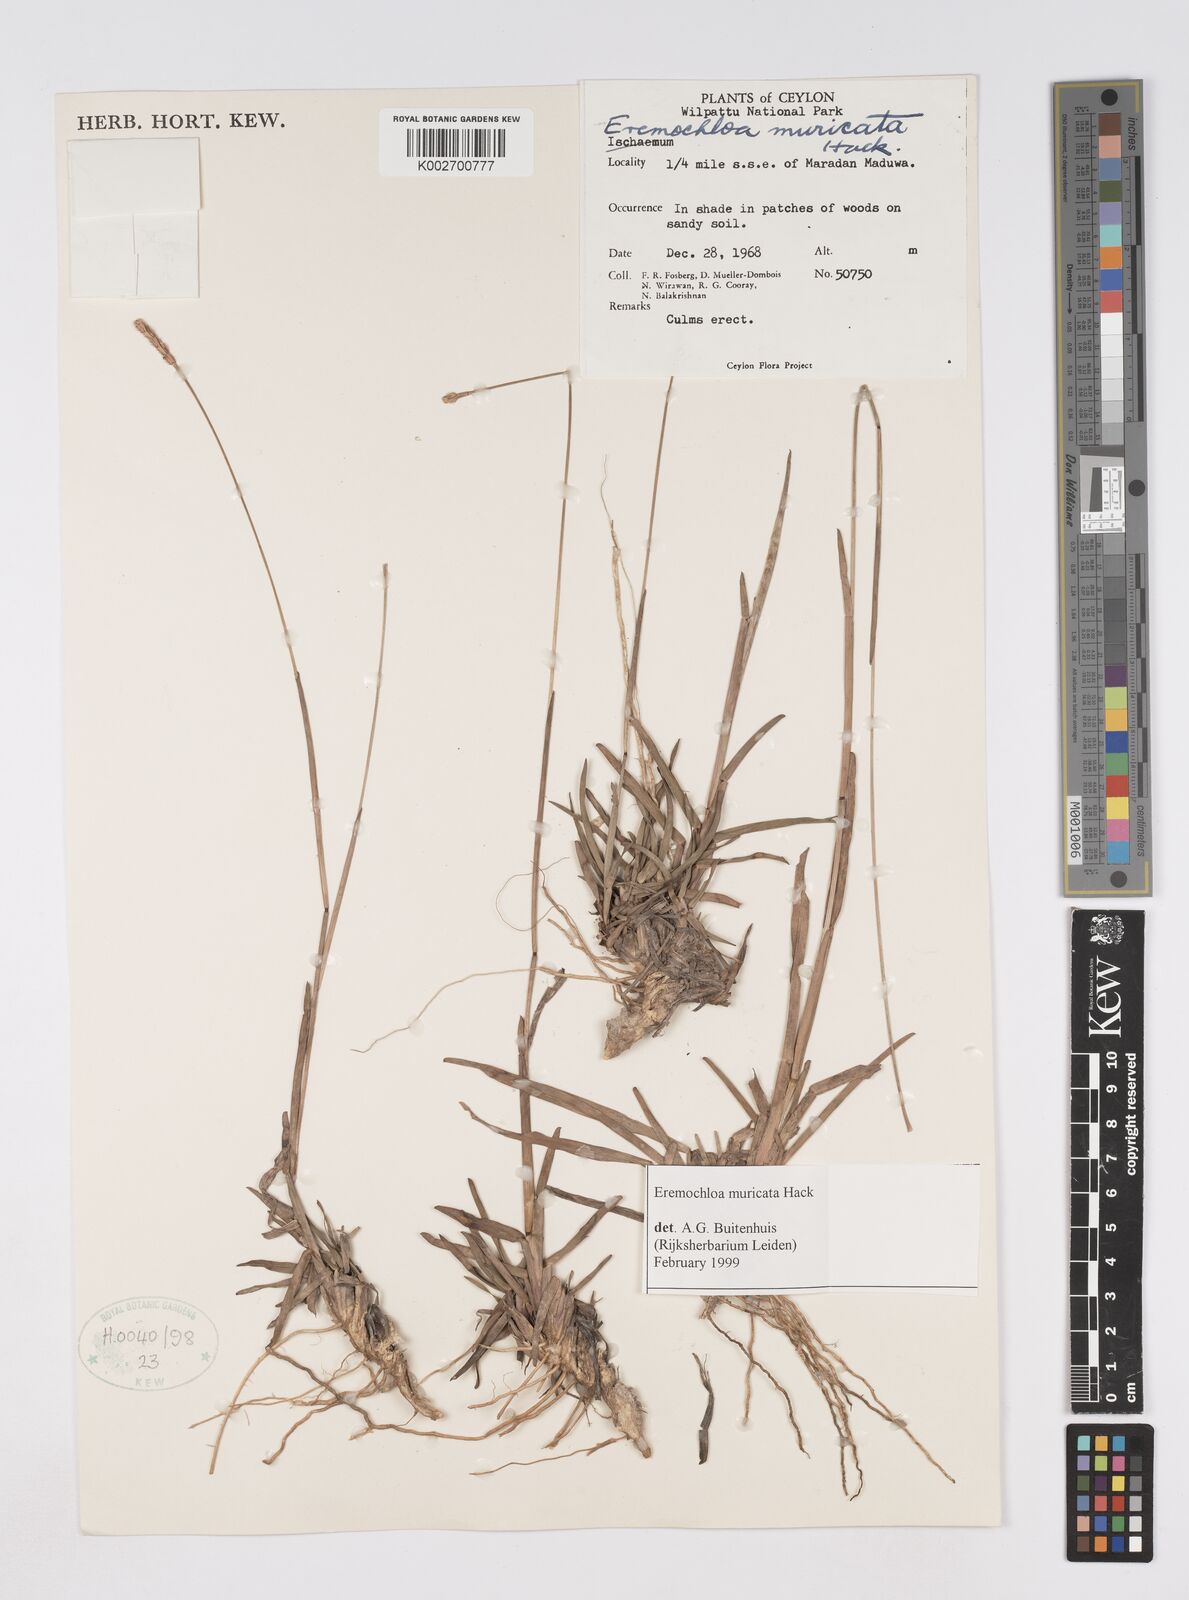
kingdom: Plantae
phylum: Tracheophyta
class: Liliopsida
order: Poales
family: Poaceae
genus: Eremochloa
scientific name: Eremochloa muricata
